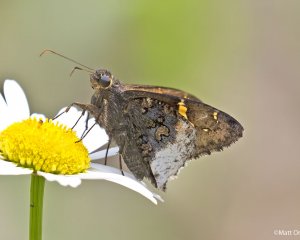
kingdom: Animalia
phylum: Arthropoda
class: Insecta
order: Lepidoptera
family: Hesperiidae
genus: Achalarus
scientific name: Achalarus lyciades
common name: Hoary Edge
